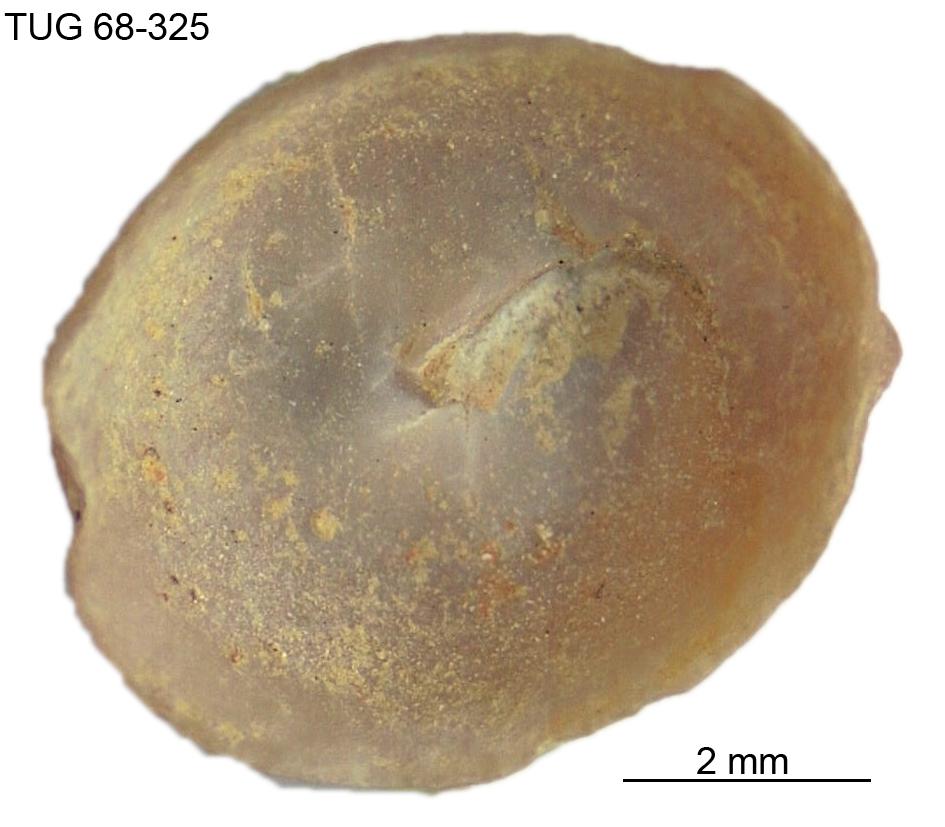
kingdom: Animalia
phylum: Mollusca
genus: Anticalyptraea
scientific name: Anticalyptraea westergaardi
